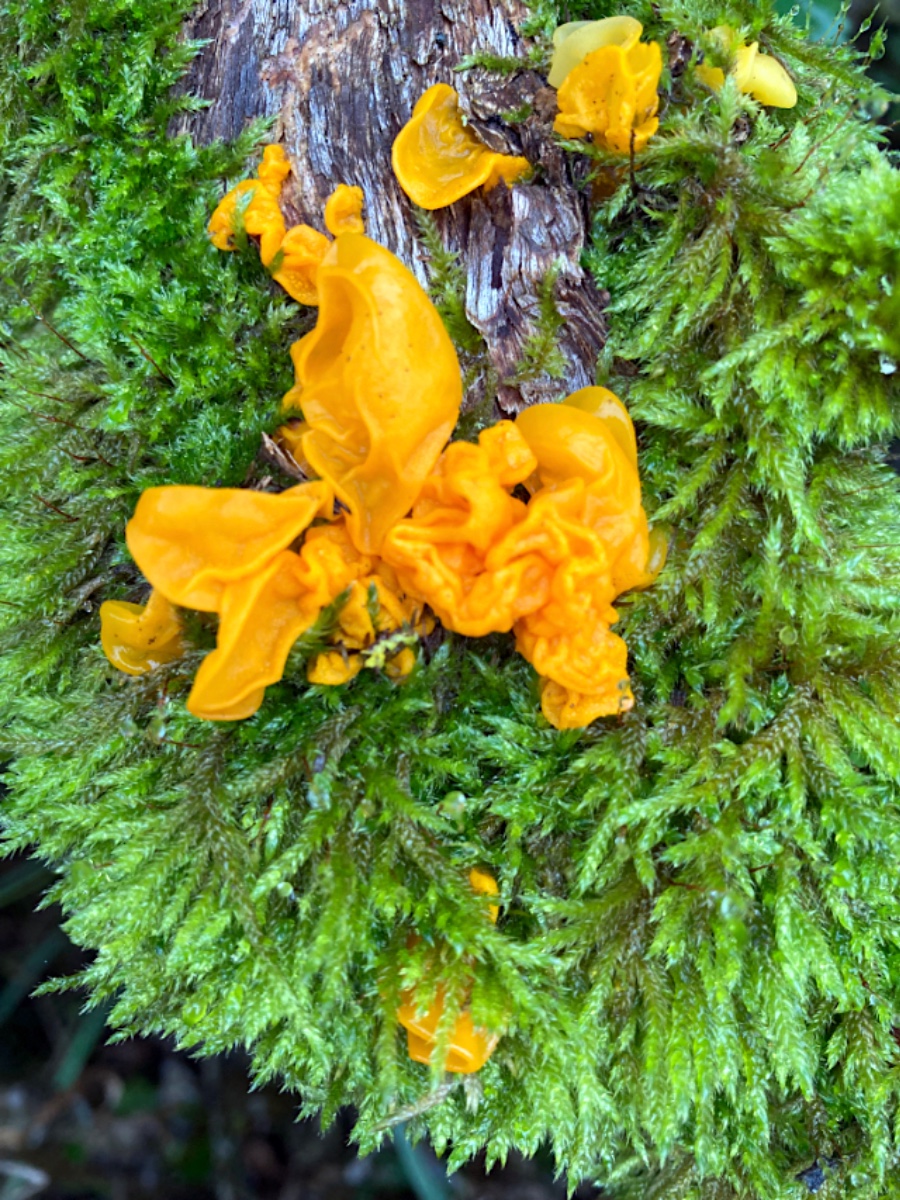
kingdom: Fungi
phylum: Basidiomycota
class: Tremellomycetes
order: Tremellales
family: Tremellaceae
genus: Tremella
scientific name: Tremella mesenterica
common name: gul bævresvamp
